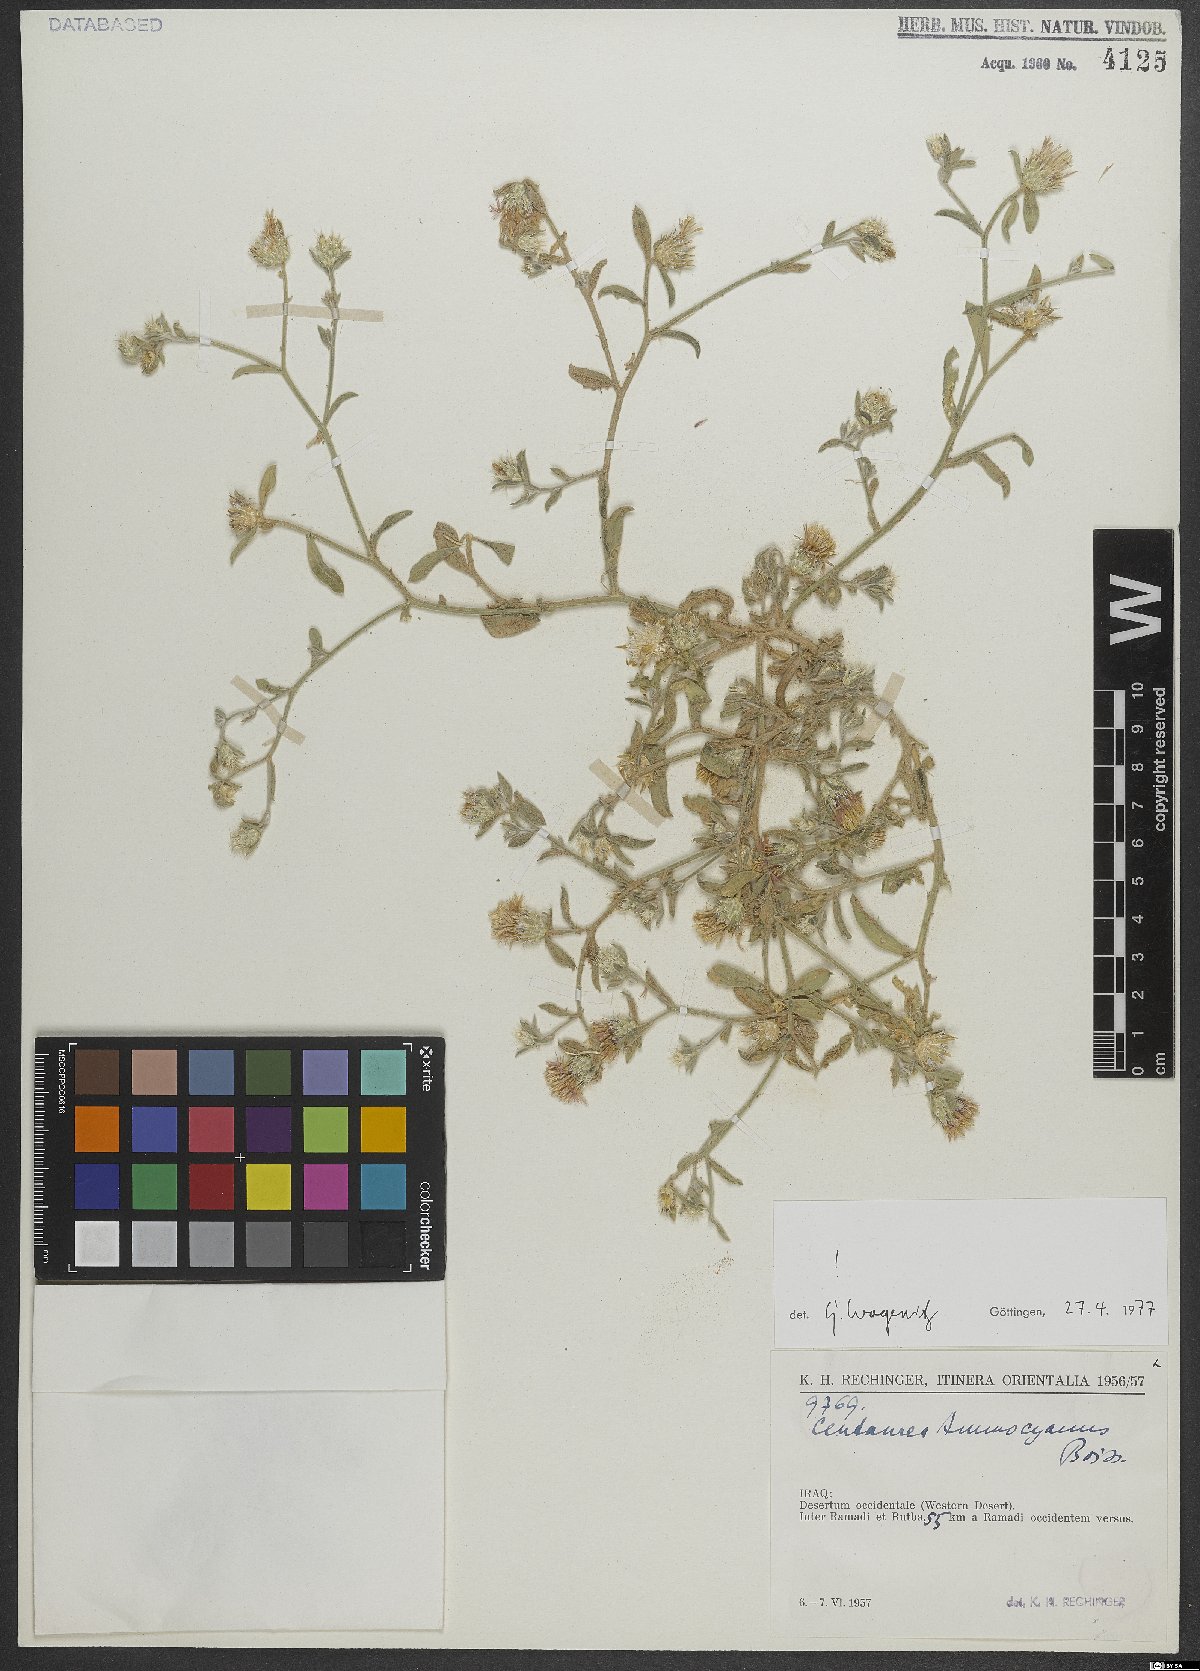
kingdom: Plantae
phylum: Tracheophyta
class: Magnoliopsida
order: Asterales
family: Asteraceae
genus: Centaurea
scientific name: Centaurea ammocyanus
